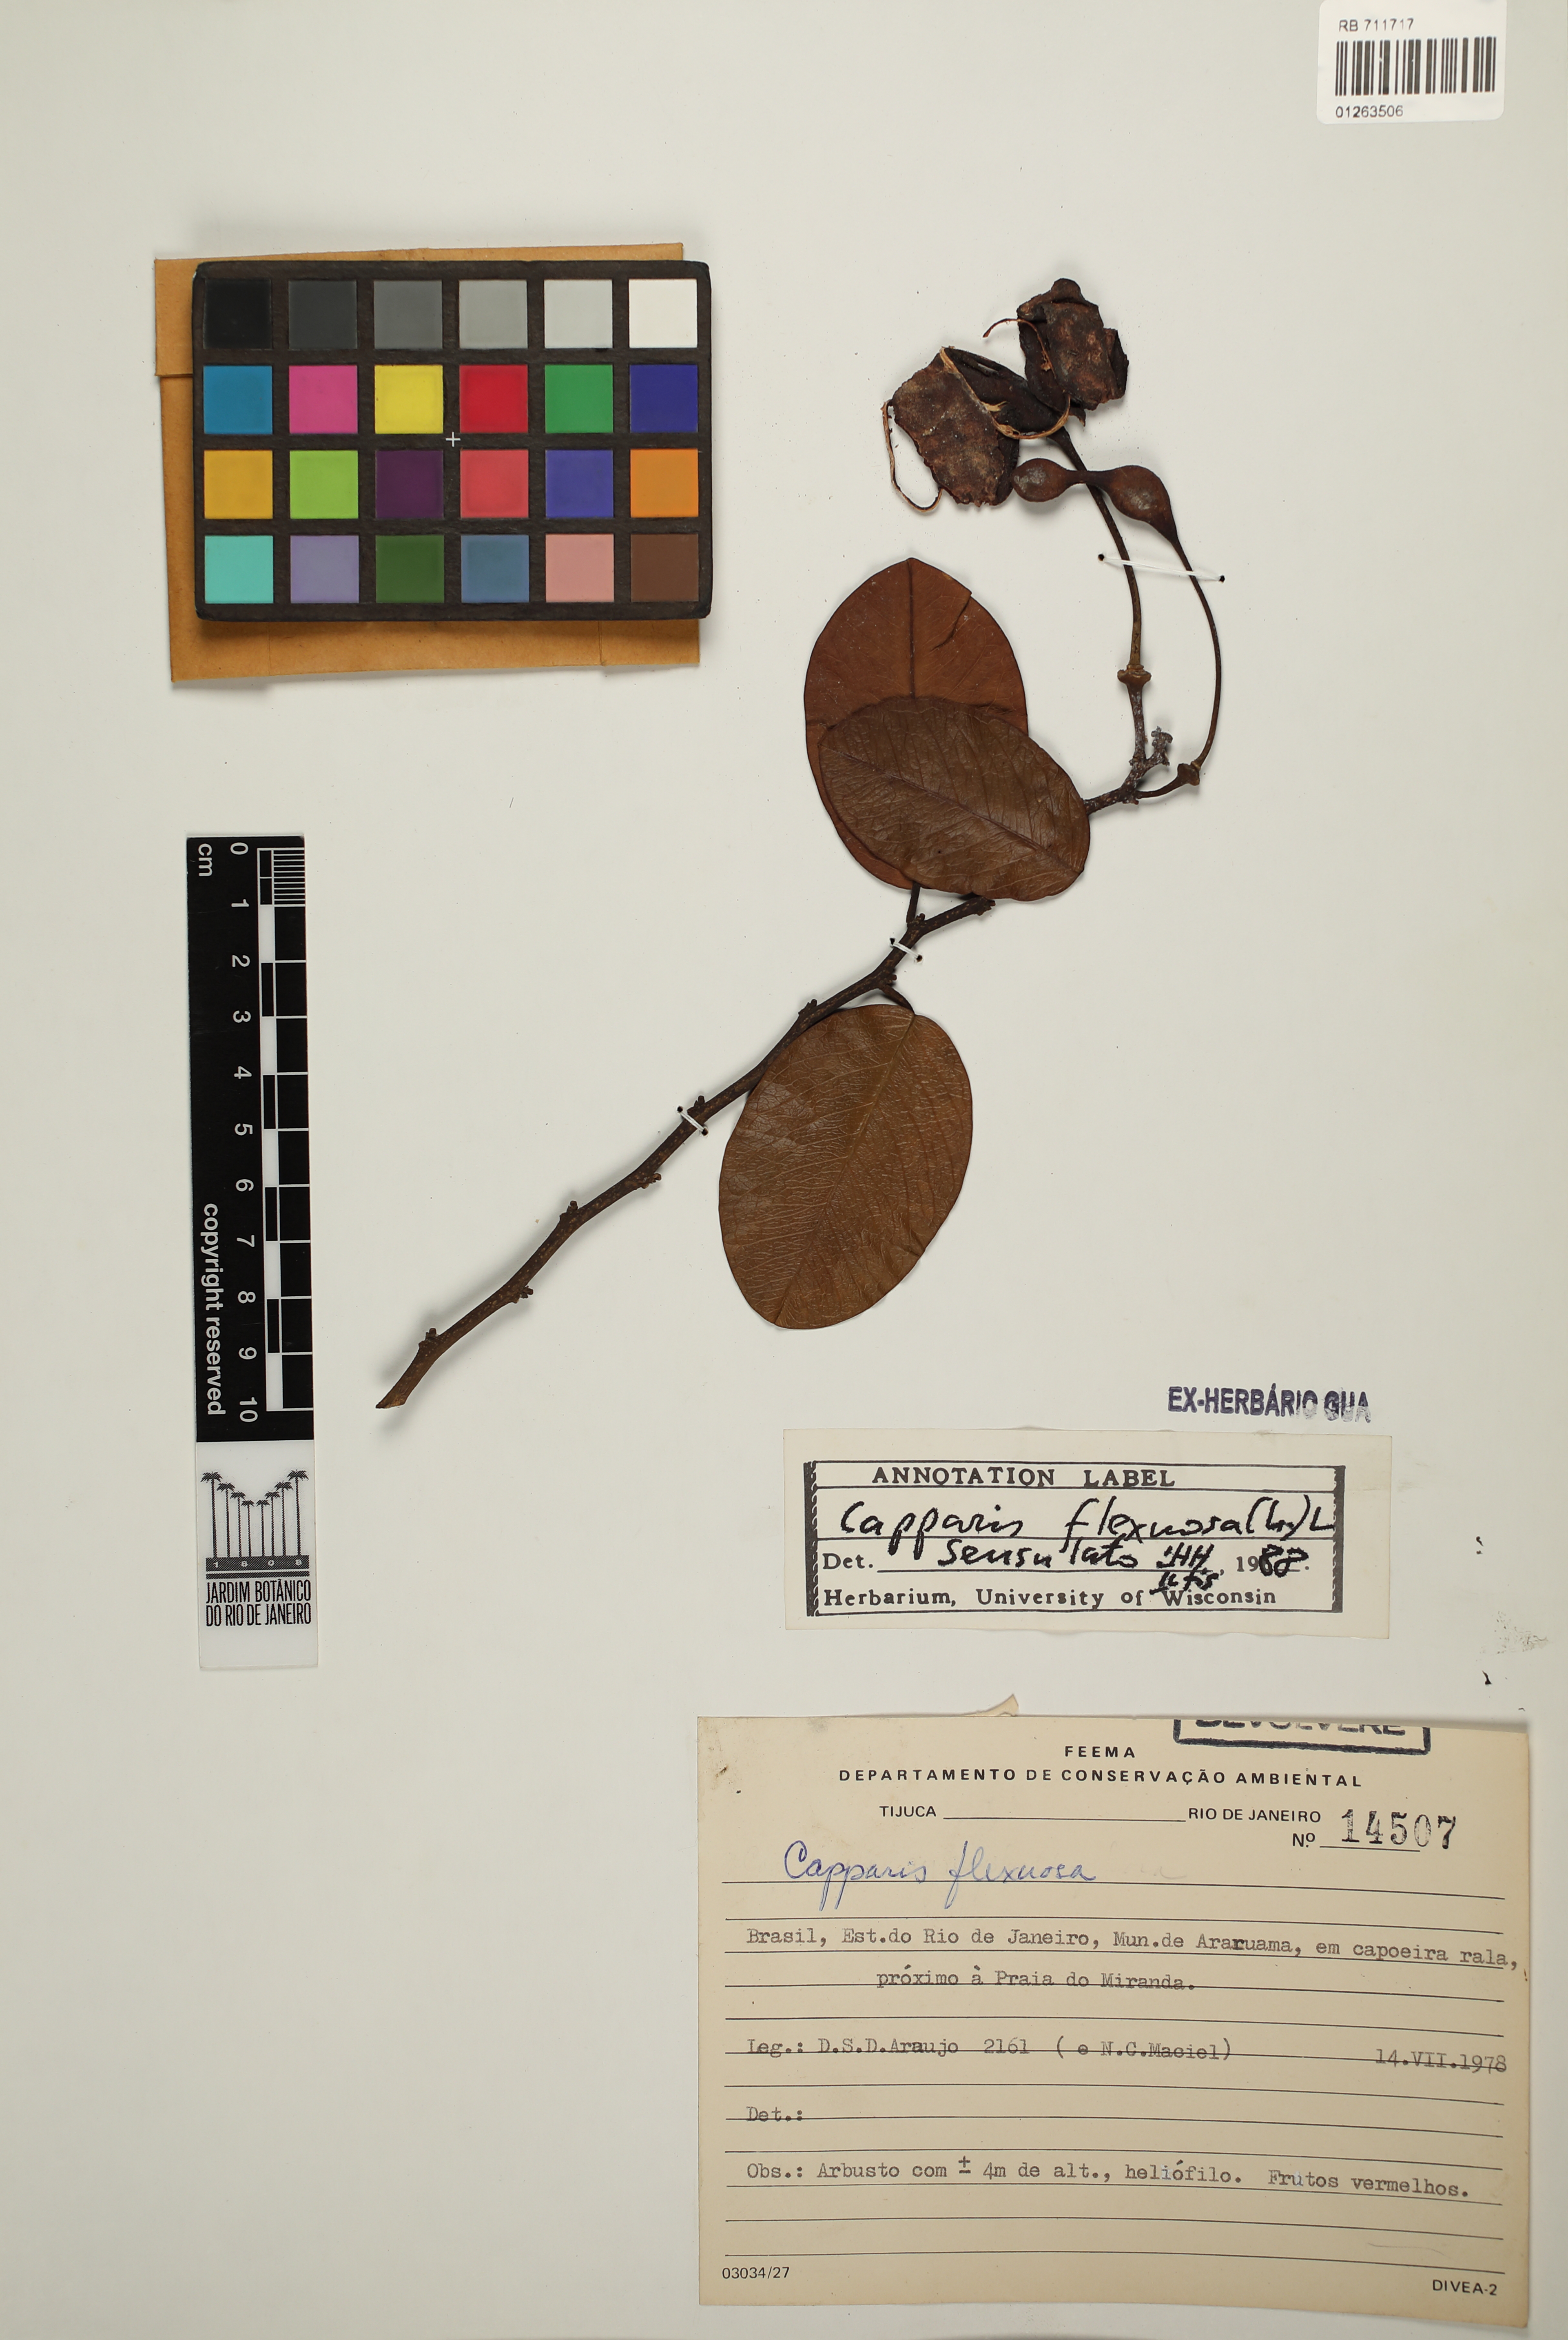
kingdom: Plantae
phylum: Tracheophyta
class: Magnoliopsida
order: Brassicales
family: Capparaceae
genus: Cynophalla
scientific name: Cynophalla flexuosa
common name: Capertree
